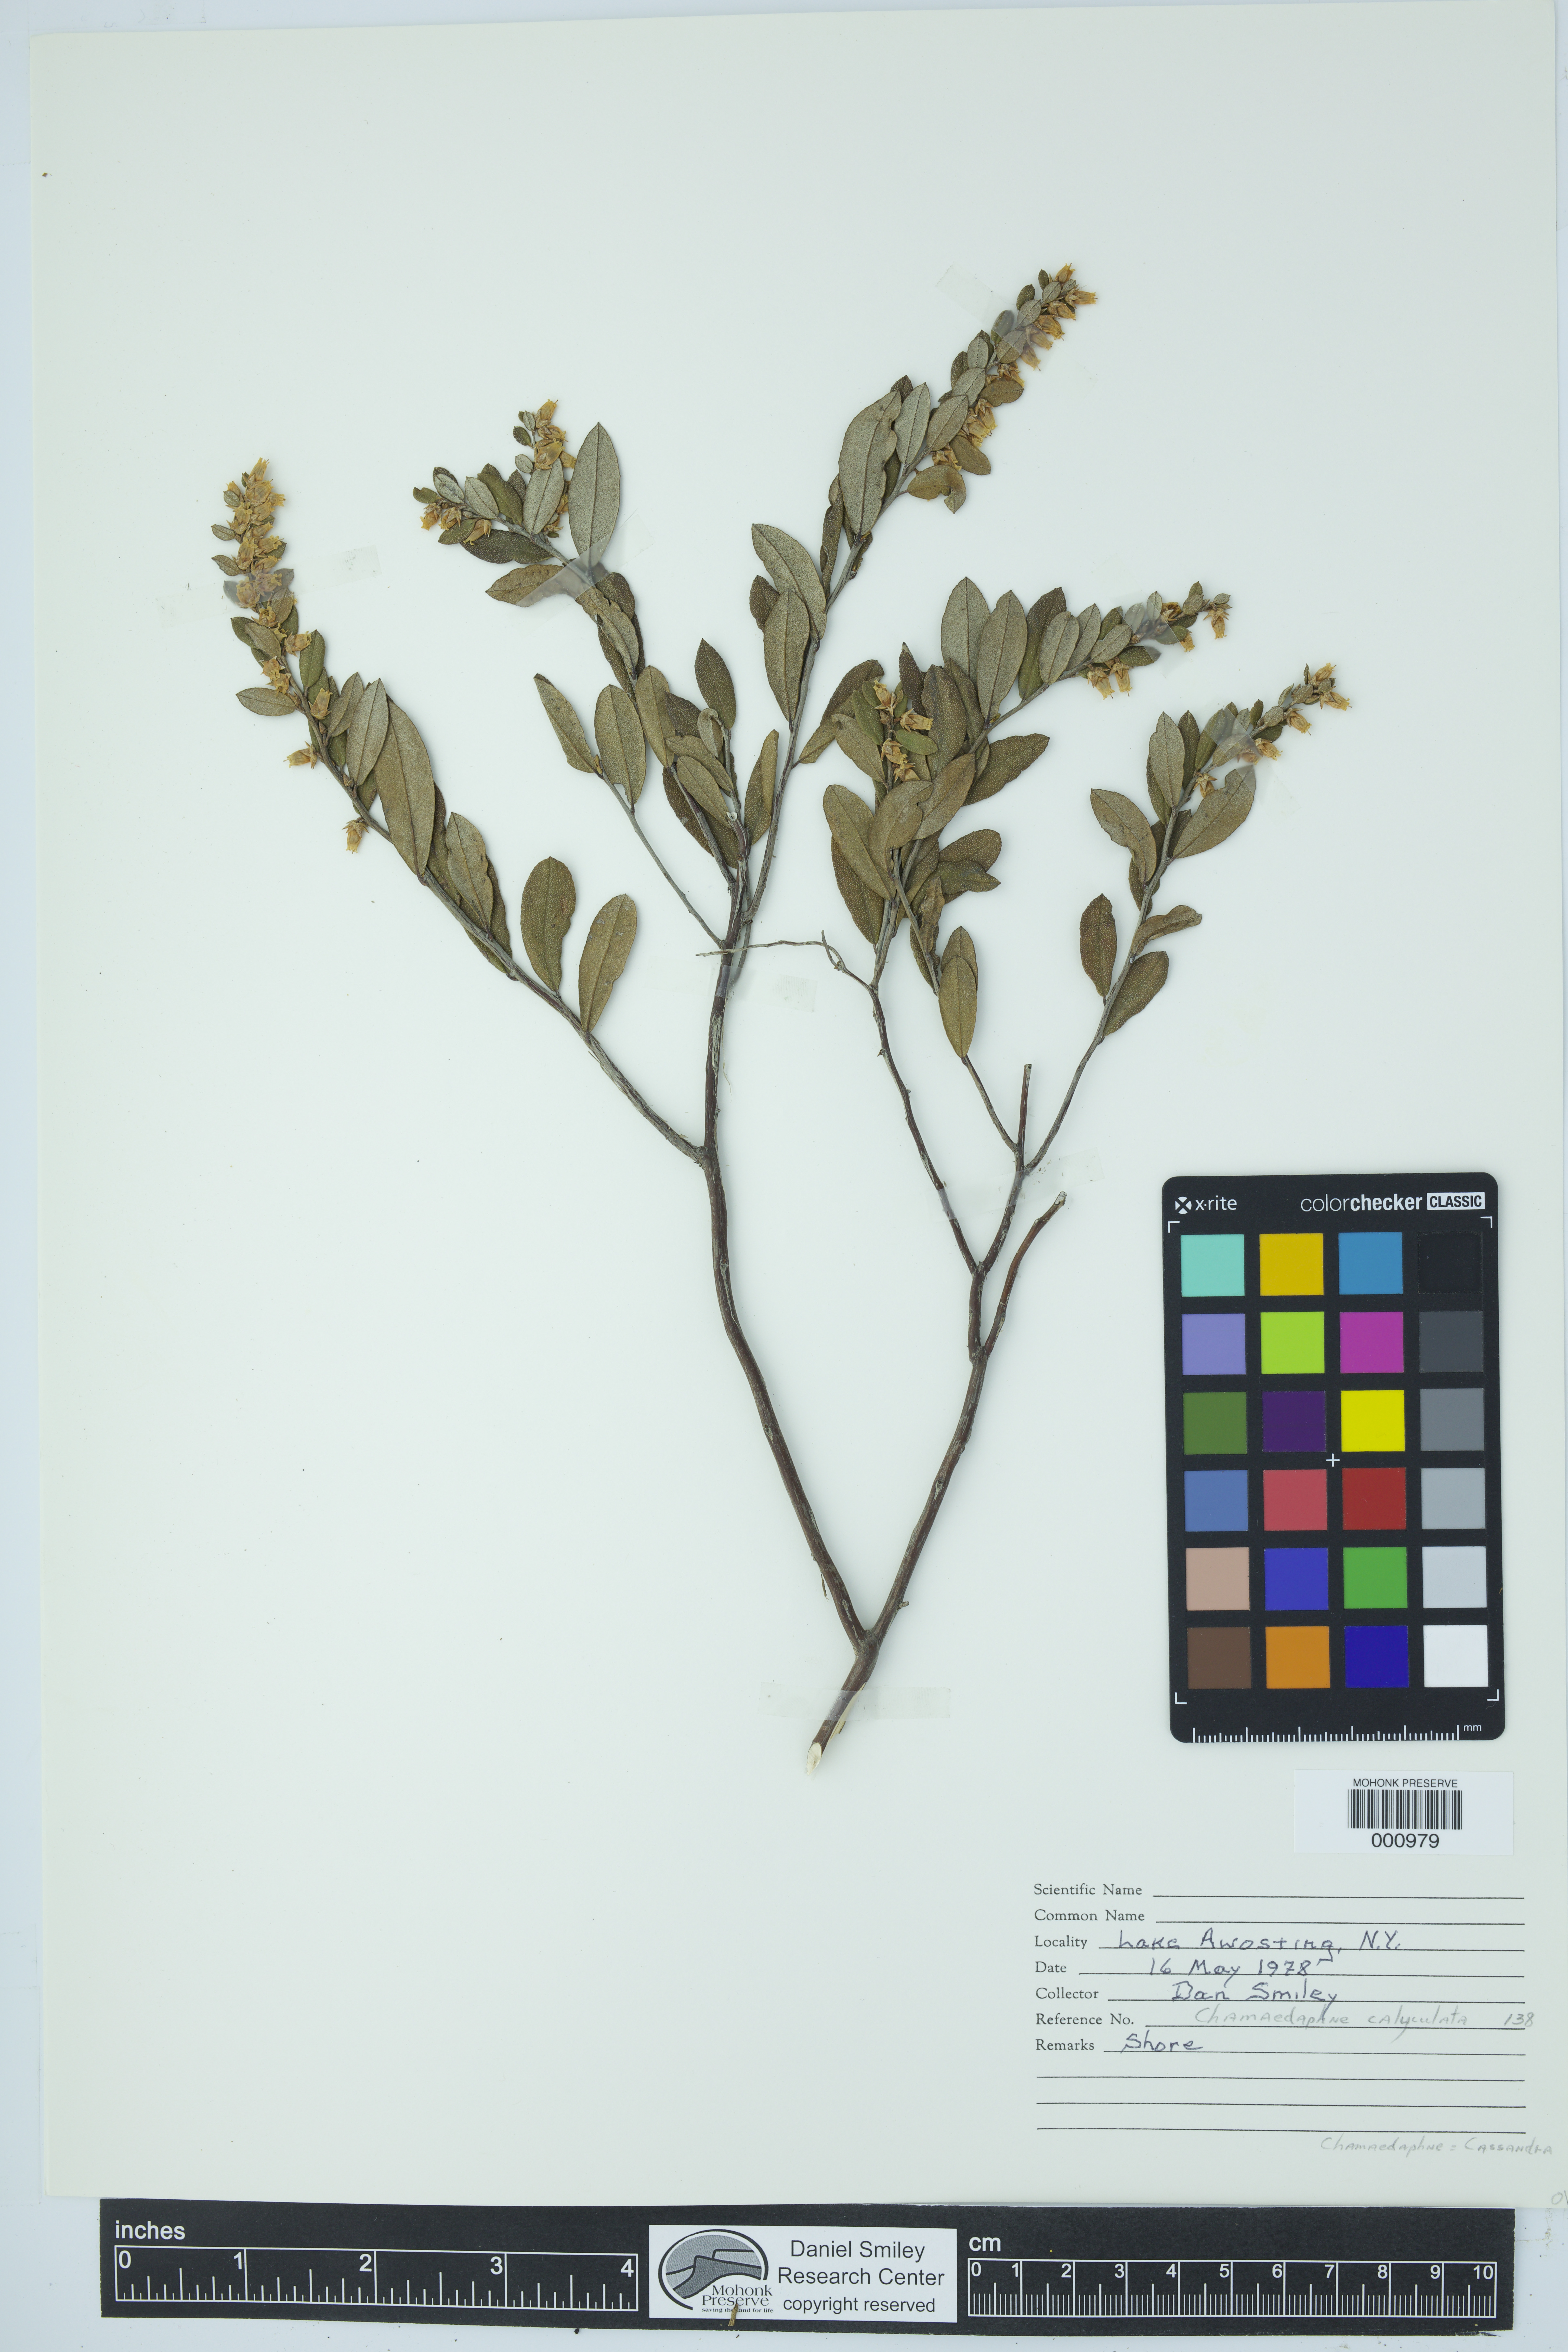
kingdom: Plantae
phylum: Tracheophyta
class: Magnoliopsida
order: Ericales
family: Ericaceae
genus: Chamaedaphne
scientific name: Chamaedaphne calyculata
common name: Leatherleaf
